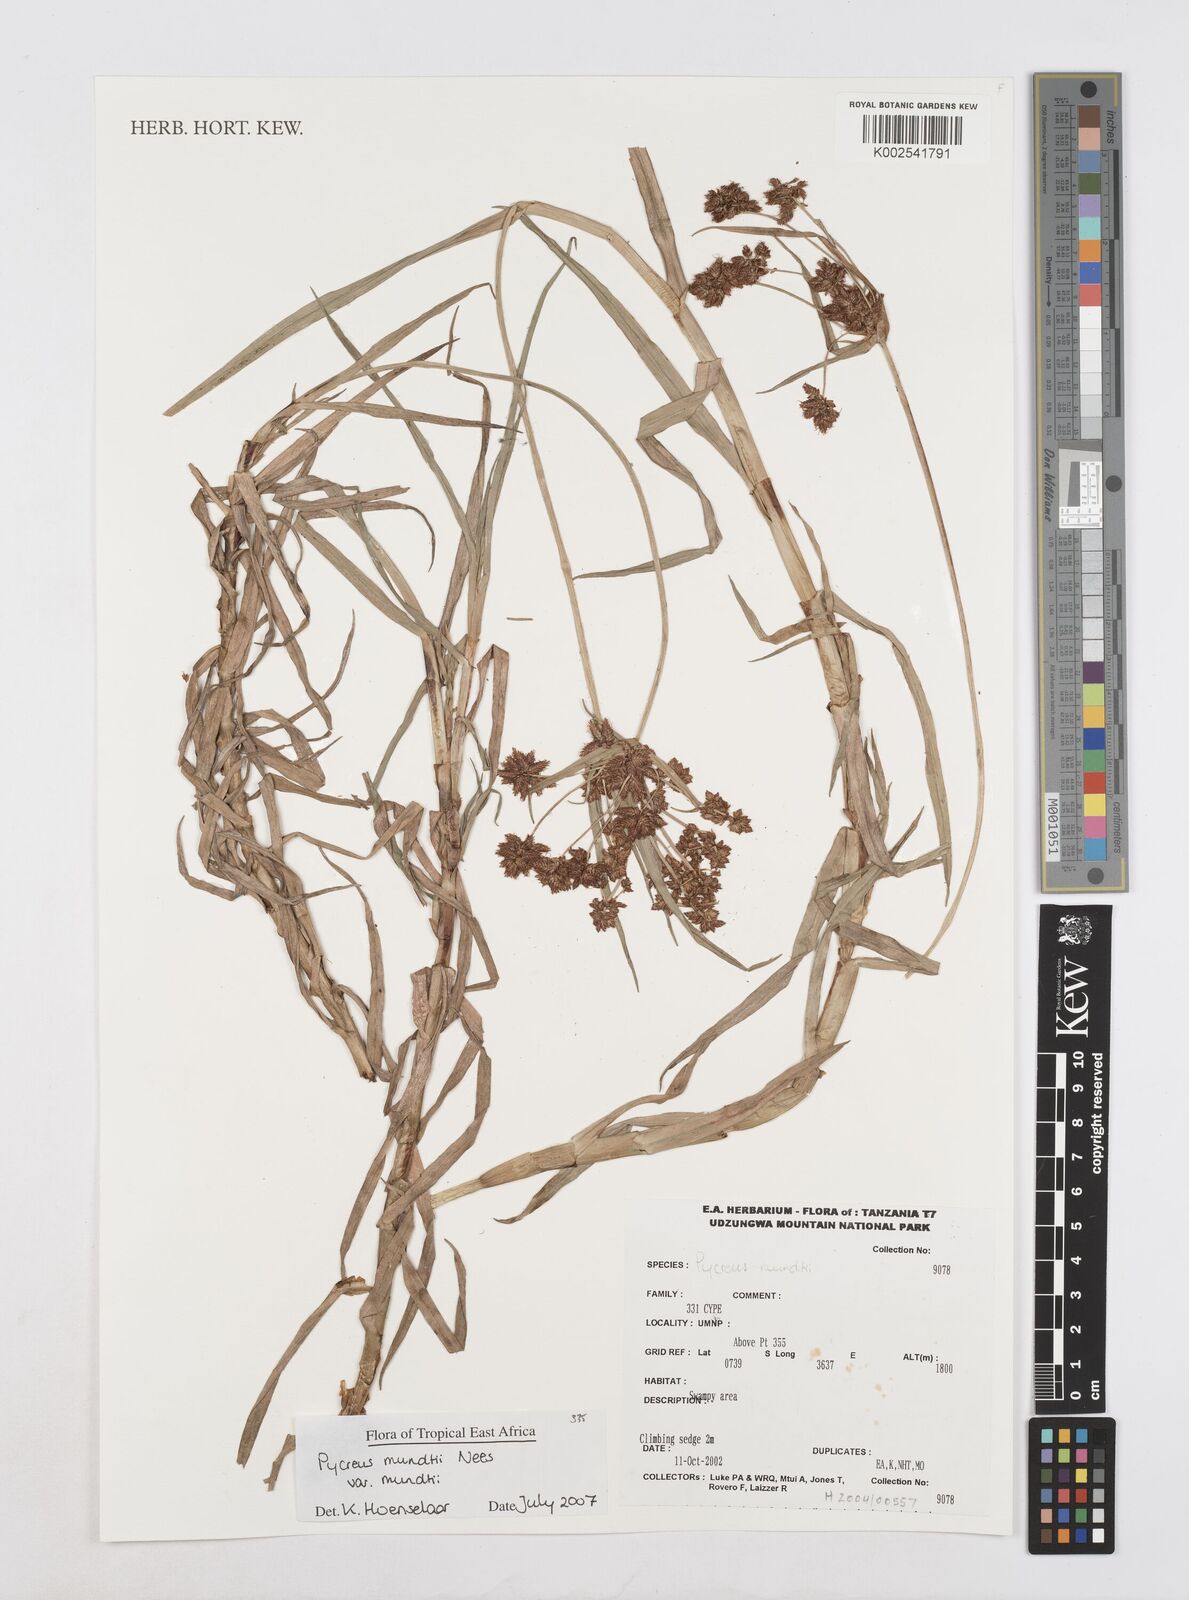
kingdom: Plantae
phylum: Tracheophyta
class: Liliopsida
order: Poales
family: Cyperaceae
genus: Cyperus
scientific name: Cyperus mundii
